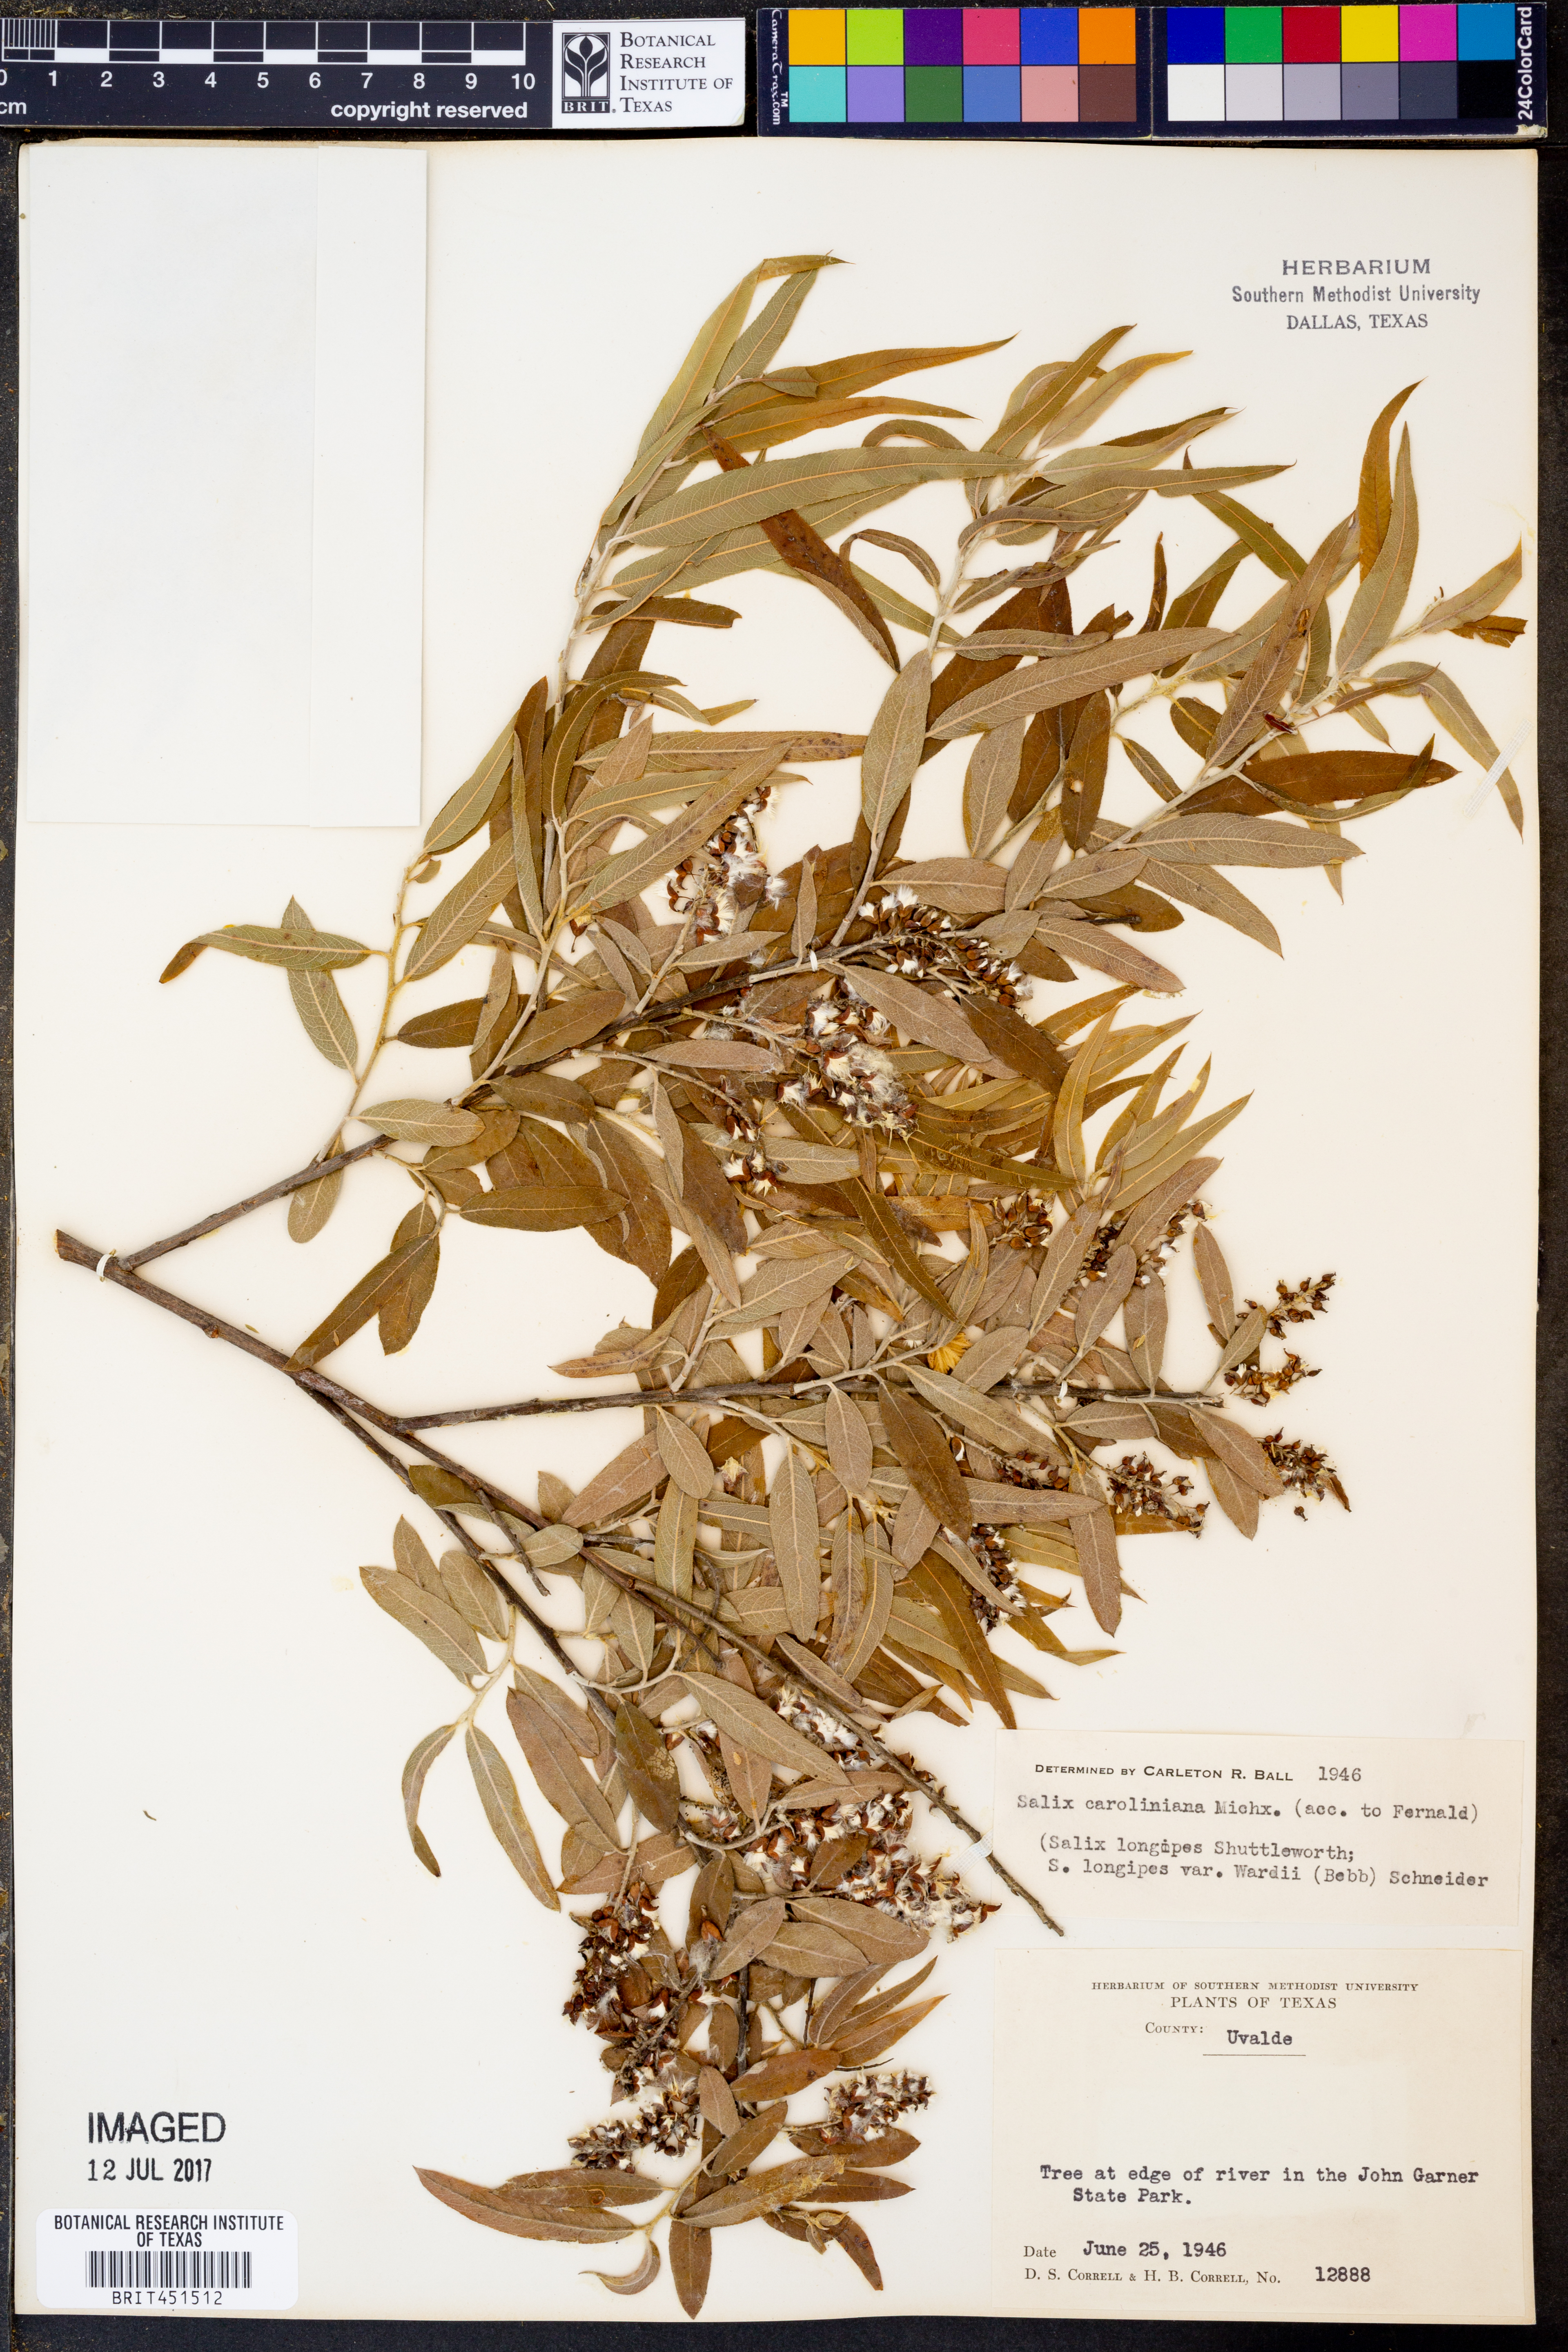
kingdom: Plantae
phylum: Tracheophyta
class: Magnoliopsida
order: Malpighiales
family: Salicaceae
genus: Salix
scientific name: Salix caroliniana
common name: Carolina willow
